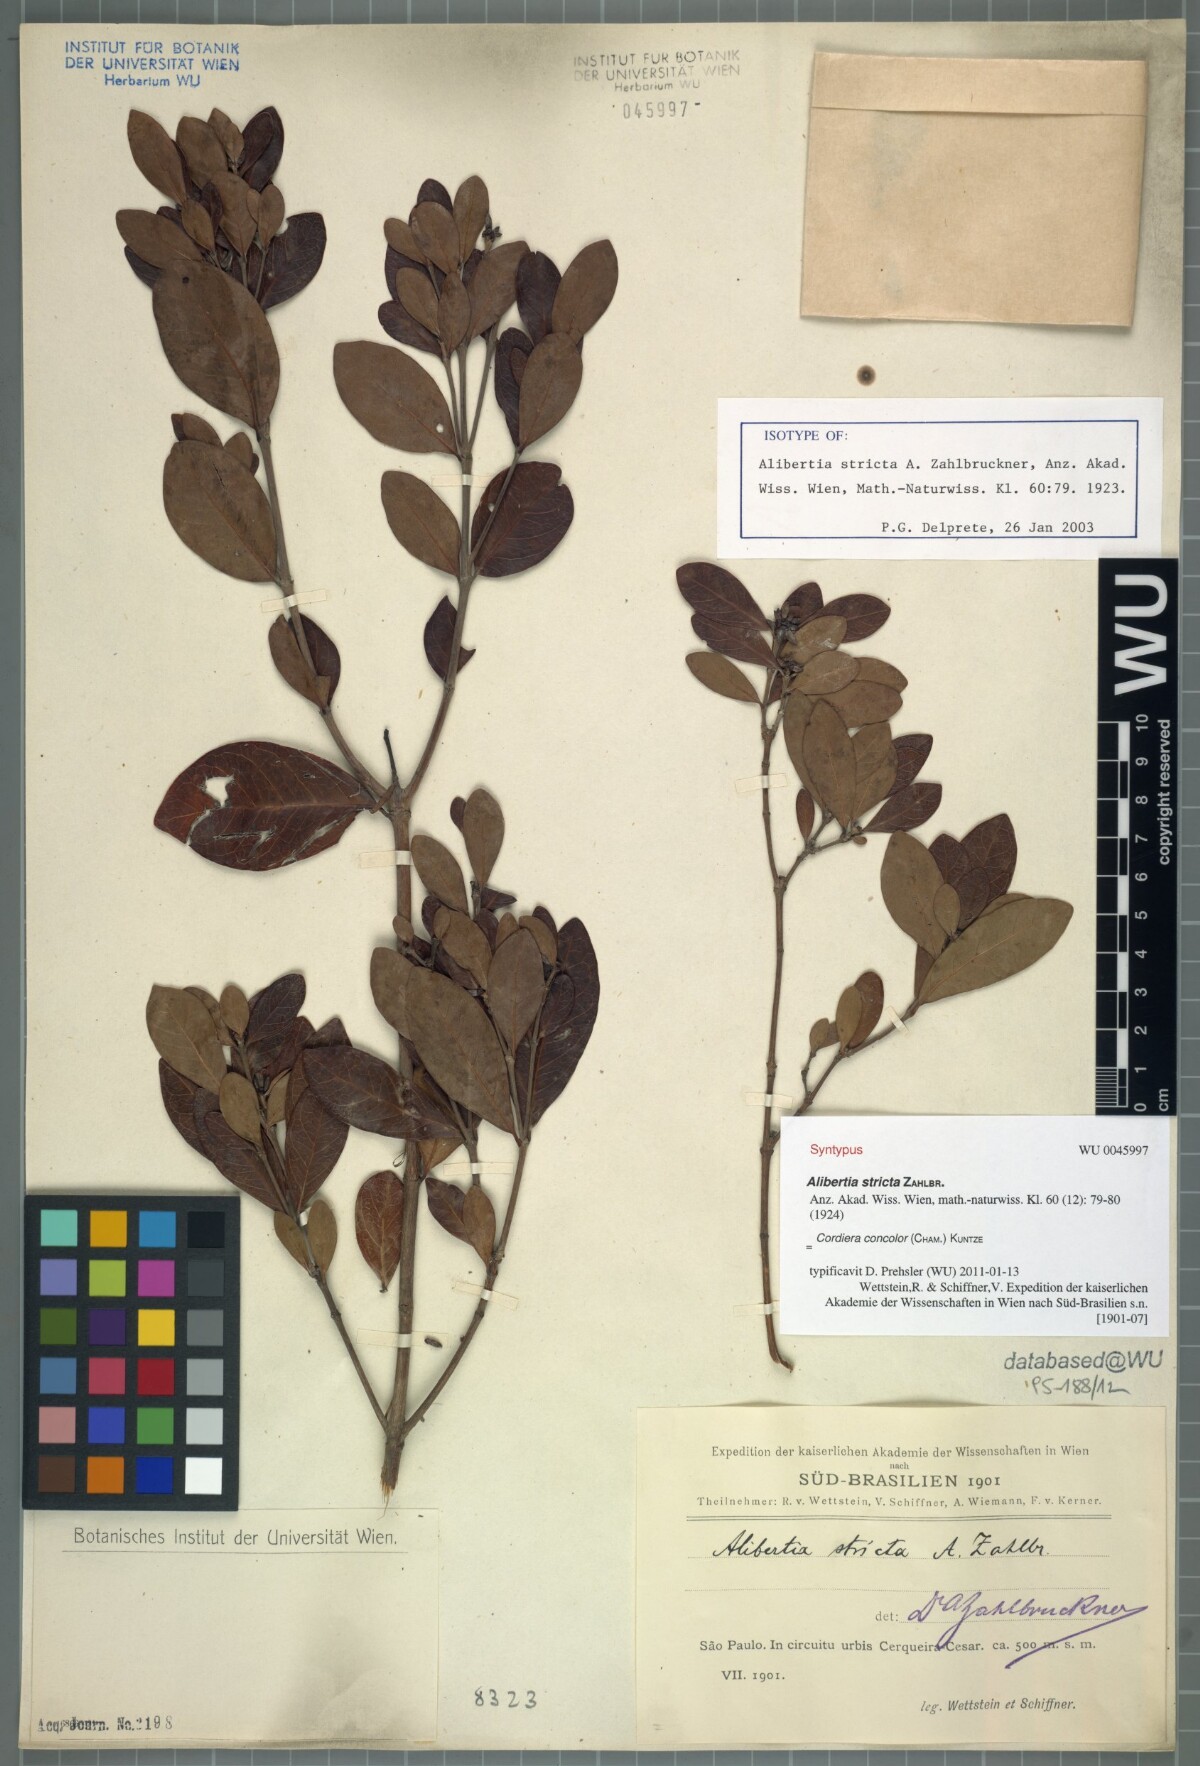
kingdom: Plantae
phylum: Tracheophyta
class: Magnoliopsida
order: Gentianales
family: Rubiaceae
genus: Cordiera
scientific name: Cordiera concolor
